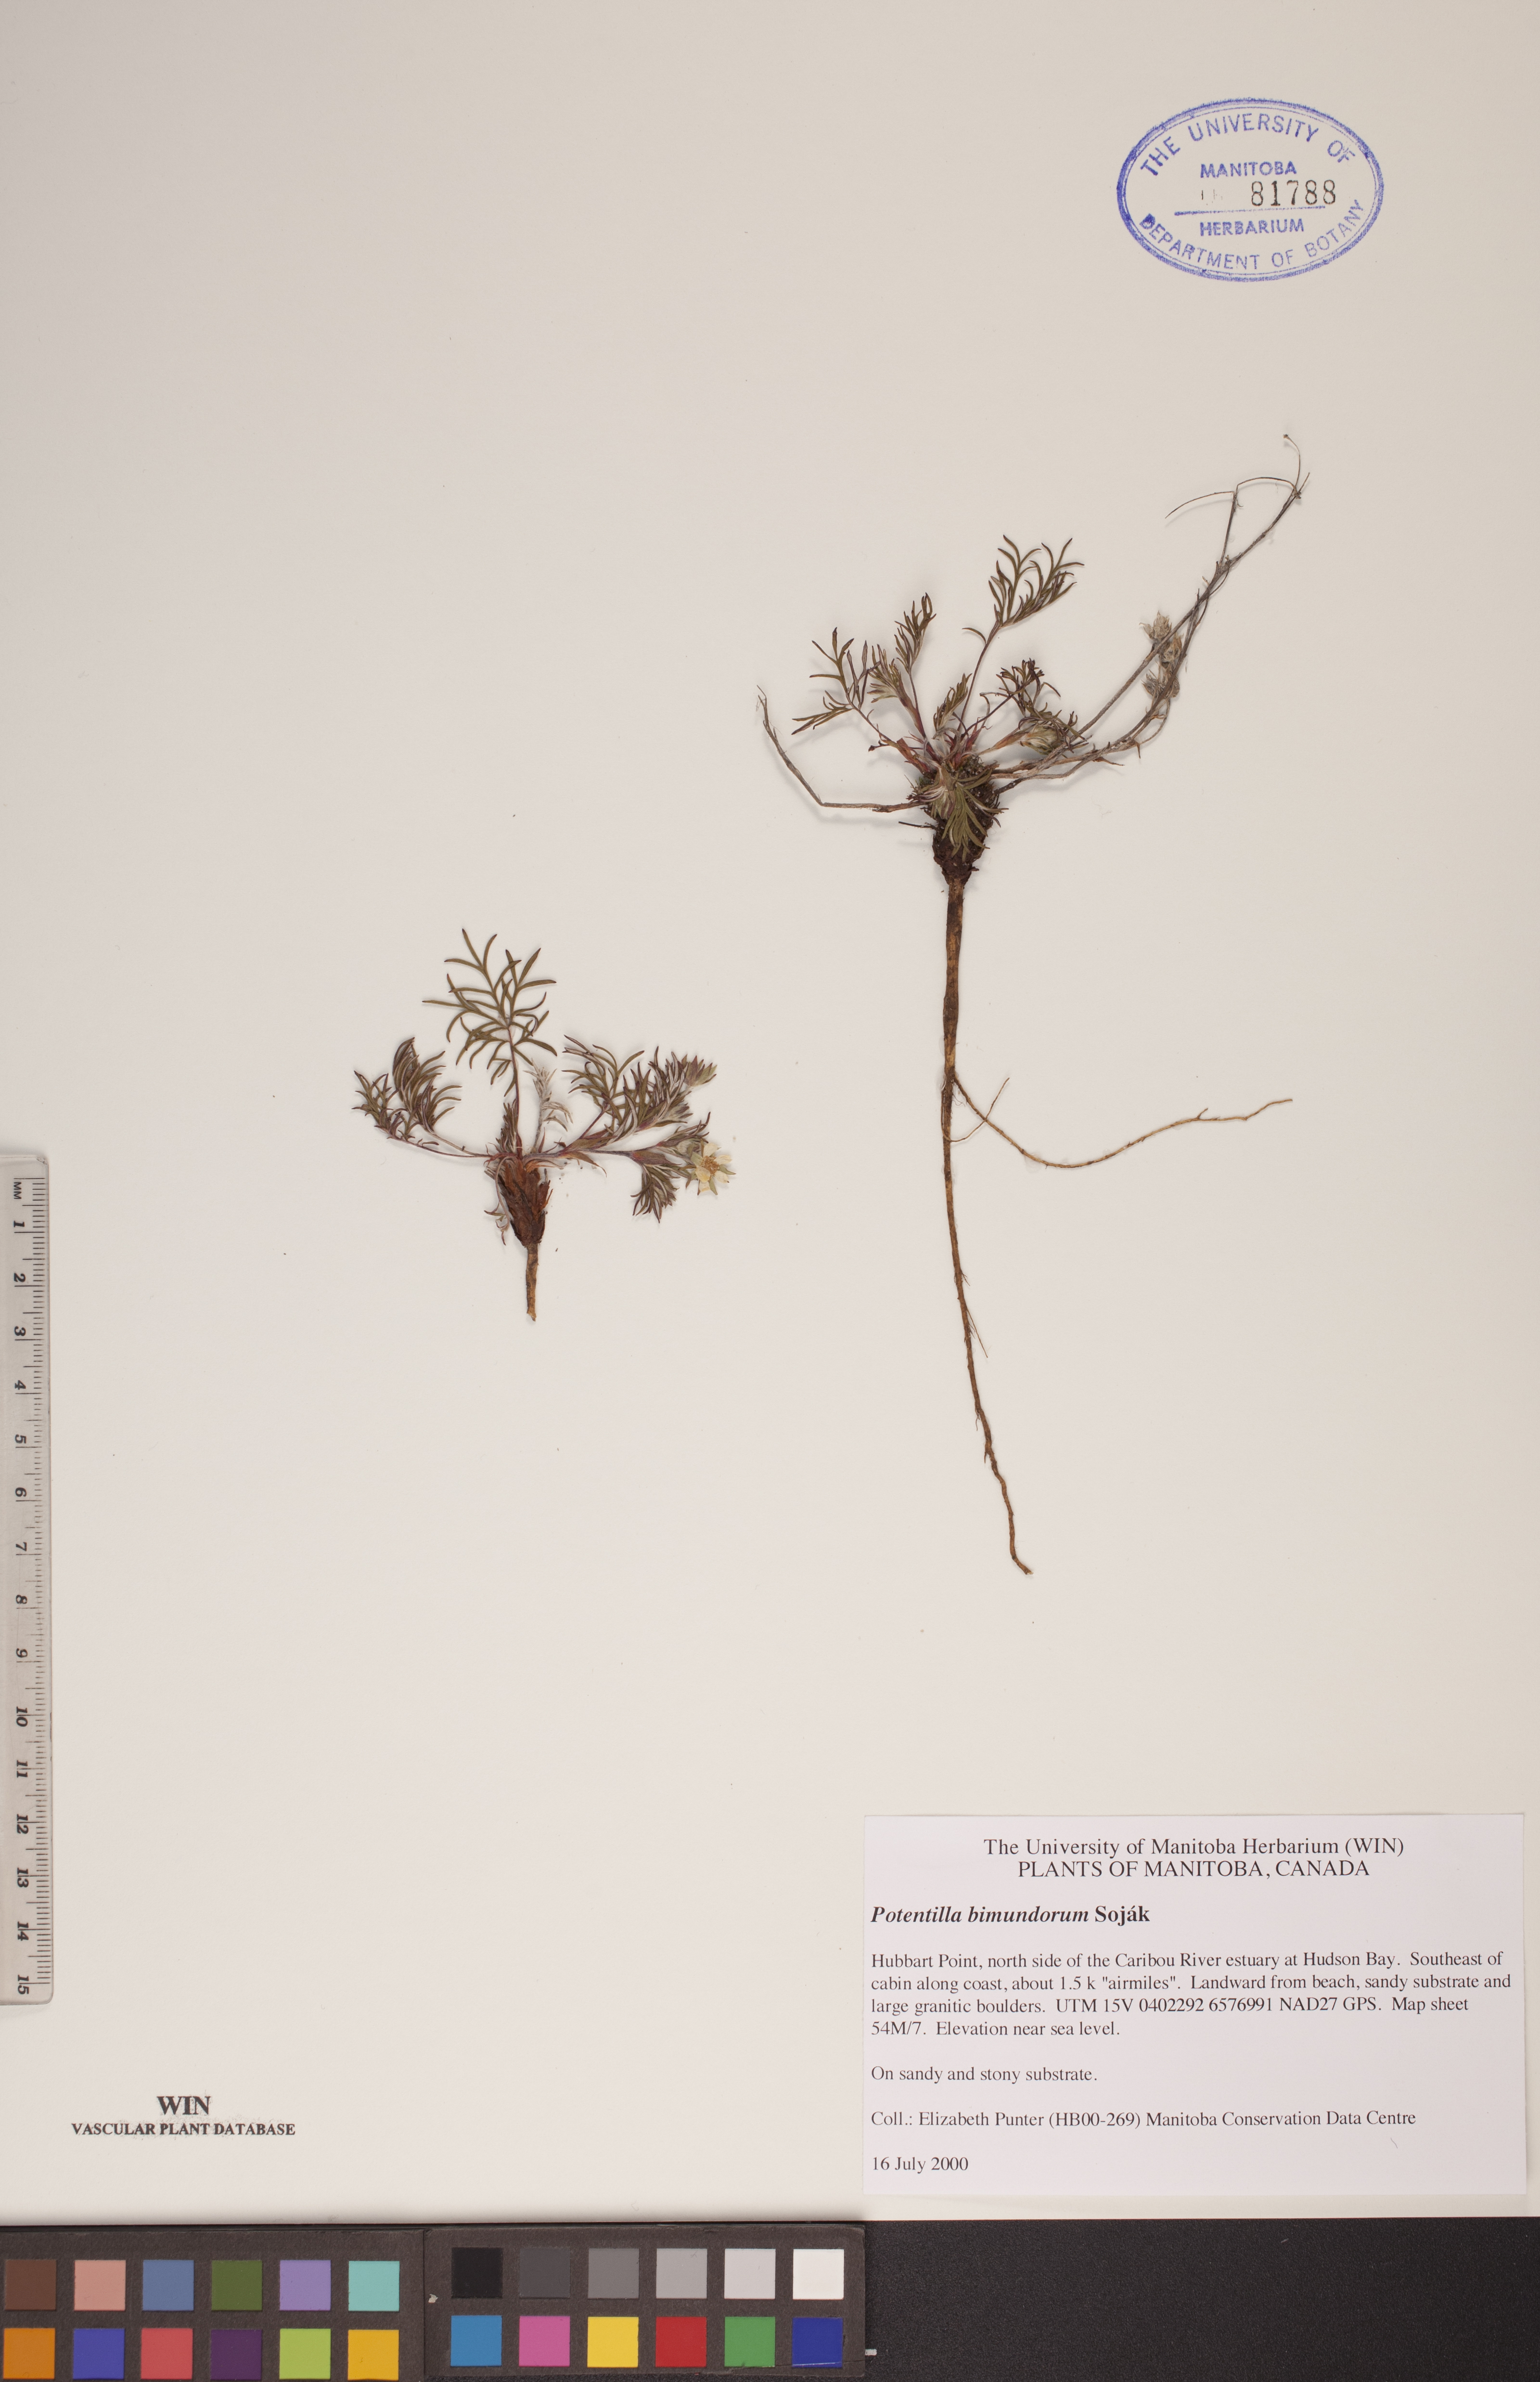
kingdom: Plantae
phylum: Tracheophyta
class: Magnoliopsida
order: Rosales
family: Rosaceae
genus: Potentilla
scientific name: Potentilla bimundorum
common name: Cut-leaved cinquefoil
